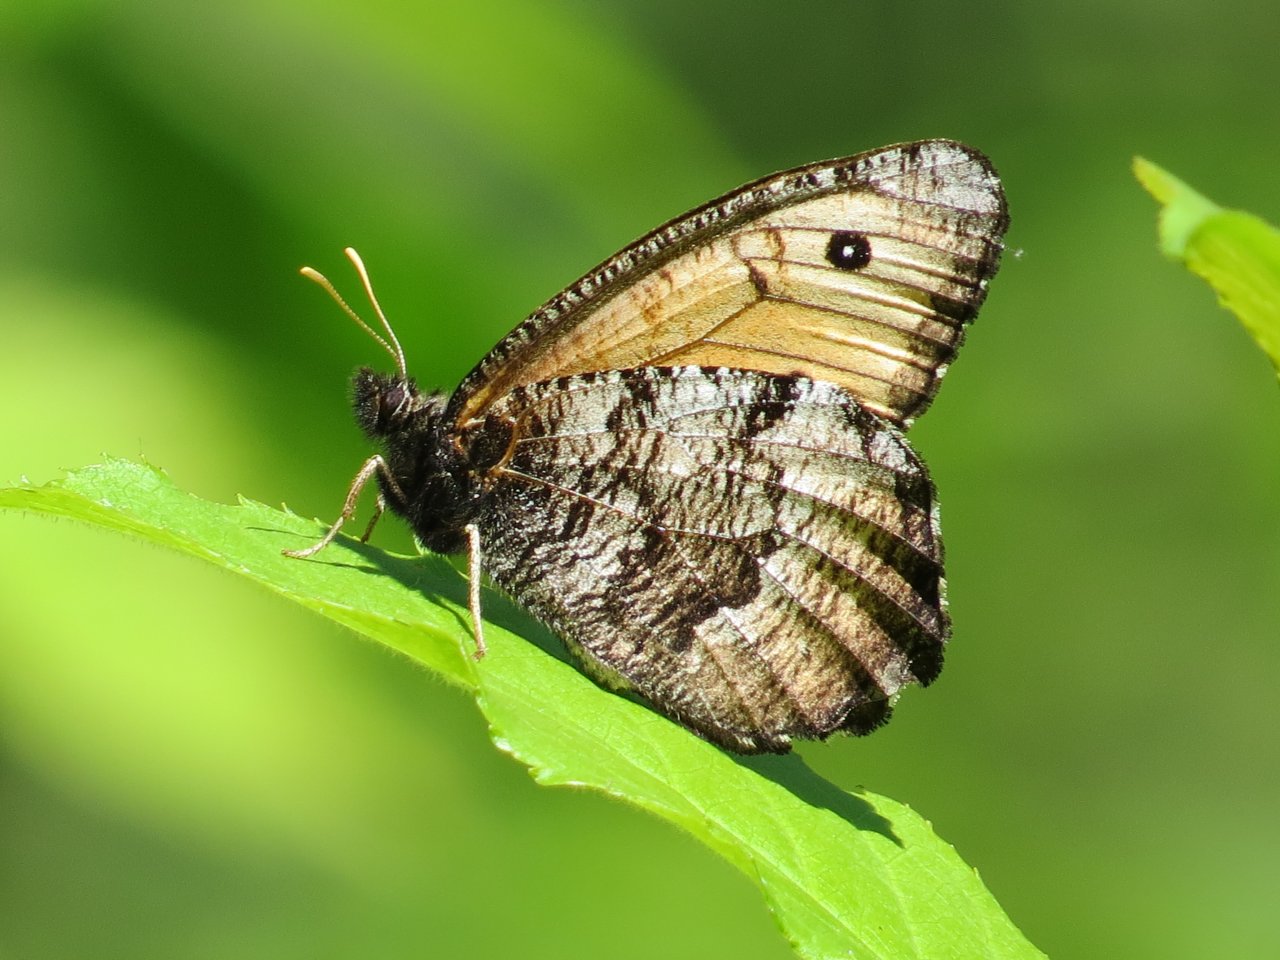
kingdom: Animalia
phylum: Arthropoda
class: Insecta
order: Lepidoptera
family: Nymphalidae
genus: Oeneis
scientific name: Oeneis macounii
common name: Macoun's Arctic
